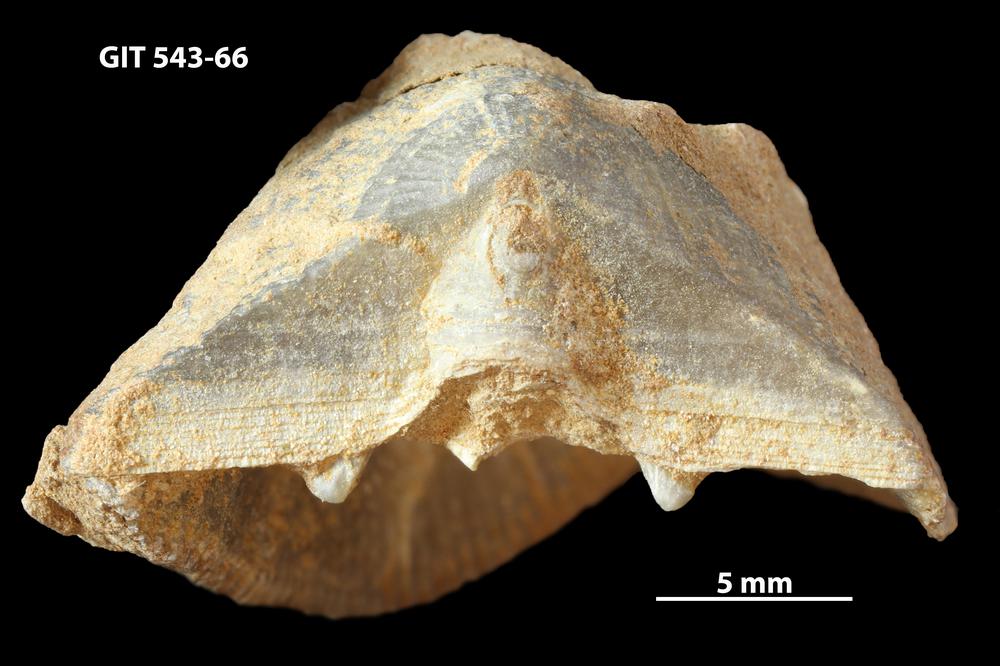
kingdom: Animalia
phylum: Brachiopoda
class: Rhynchonellata
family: Clitambonitidae
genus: Clitambonites
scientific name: Clitambonites
